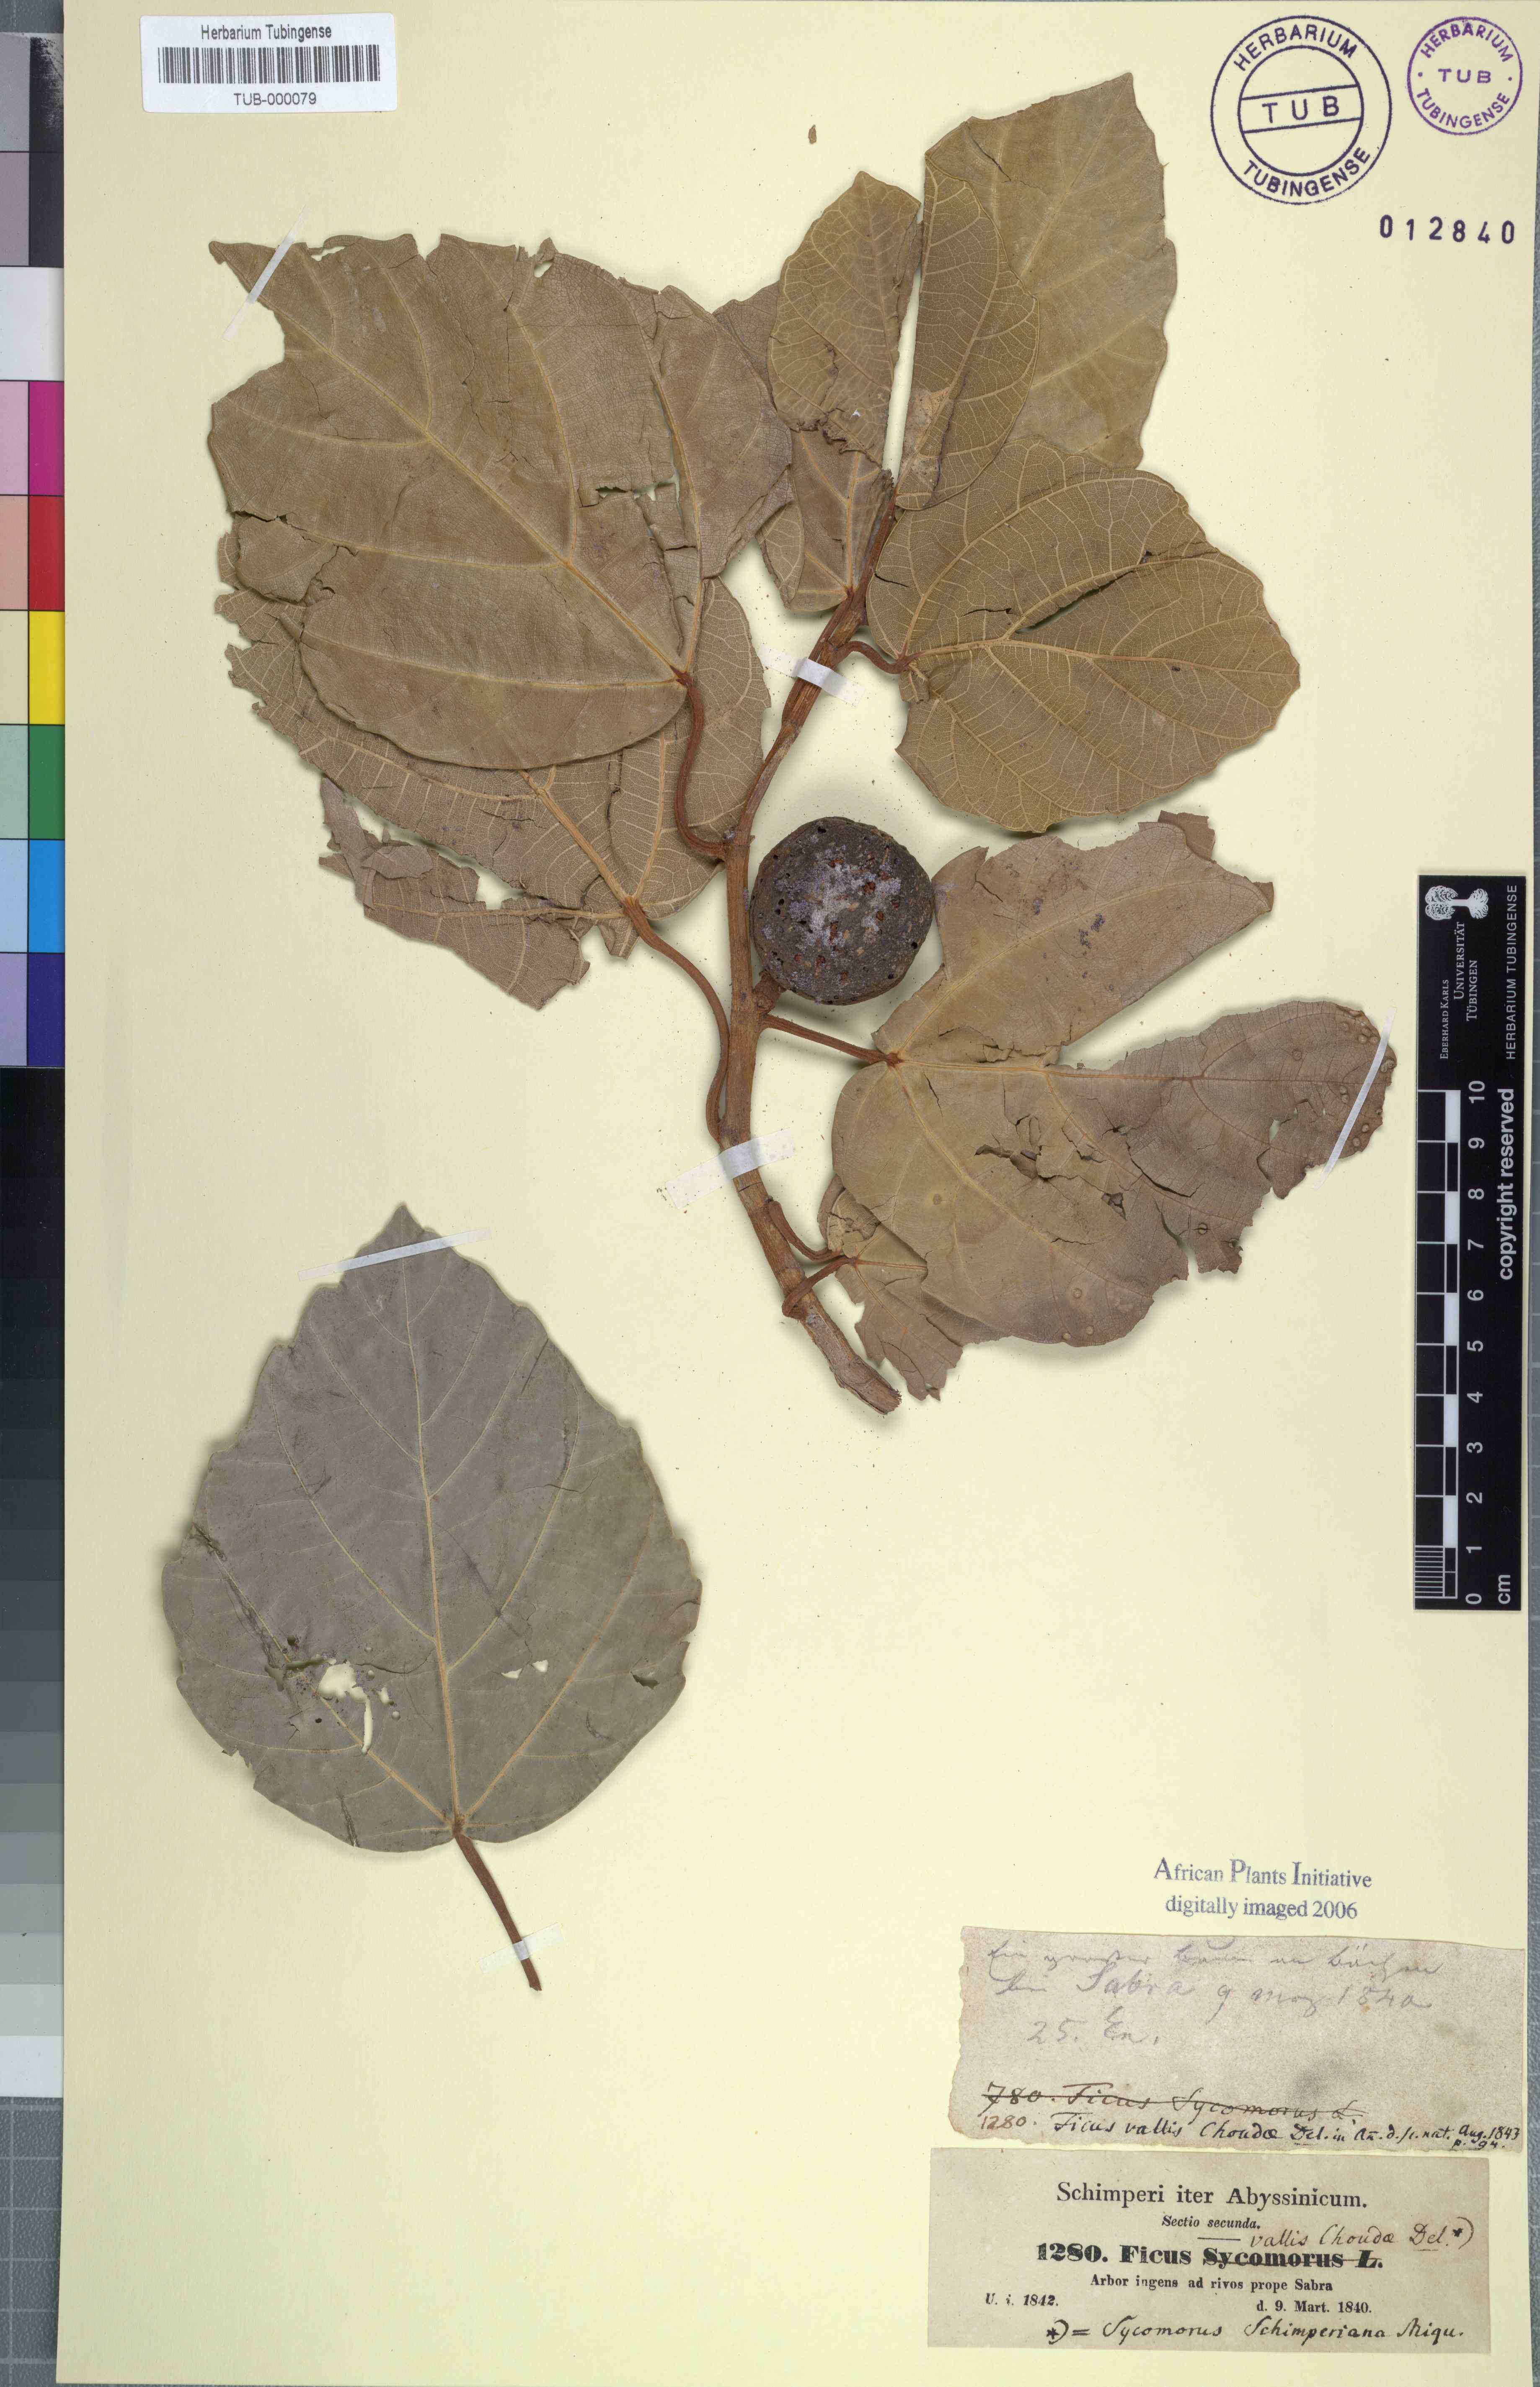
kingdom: Plantae
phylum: Tracheophyta
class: Magnoliopsida
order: Rosales
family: Moraceae
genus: Ficus
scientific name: Ficus vallis-choudae
